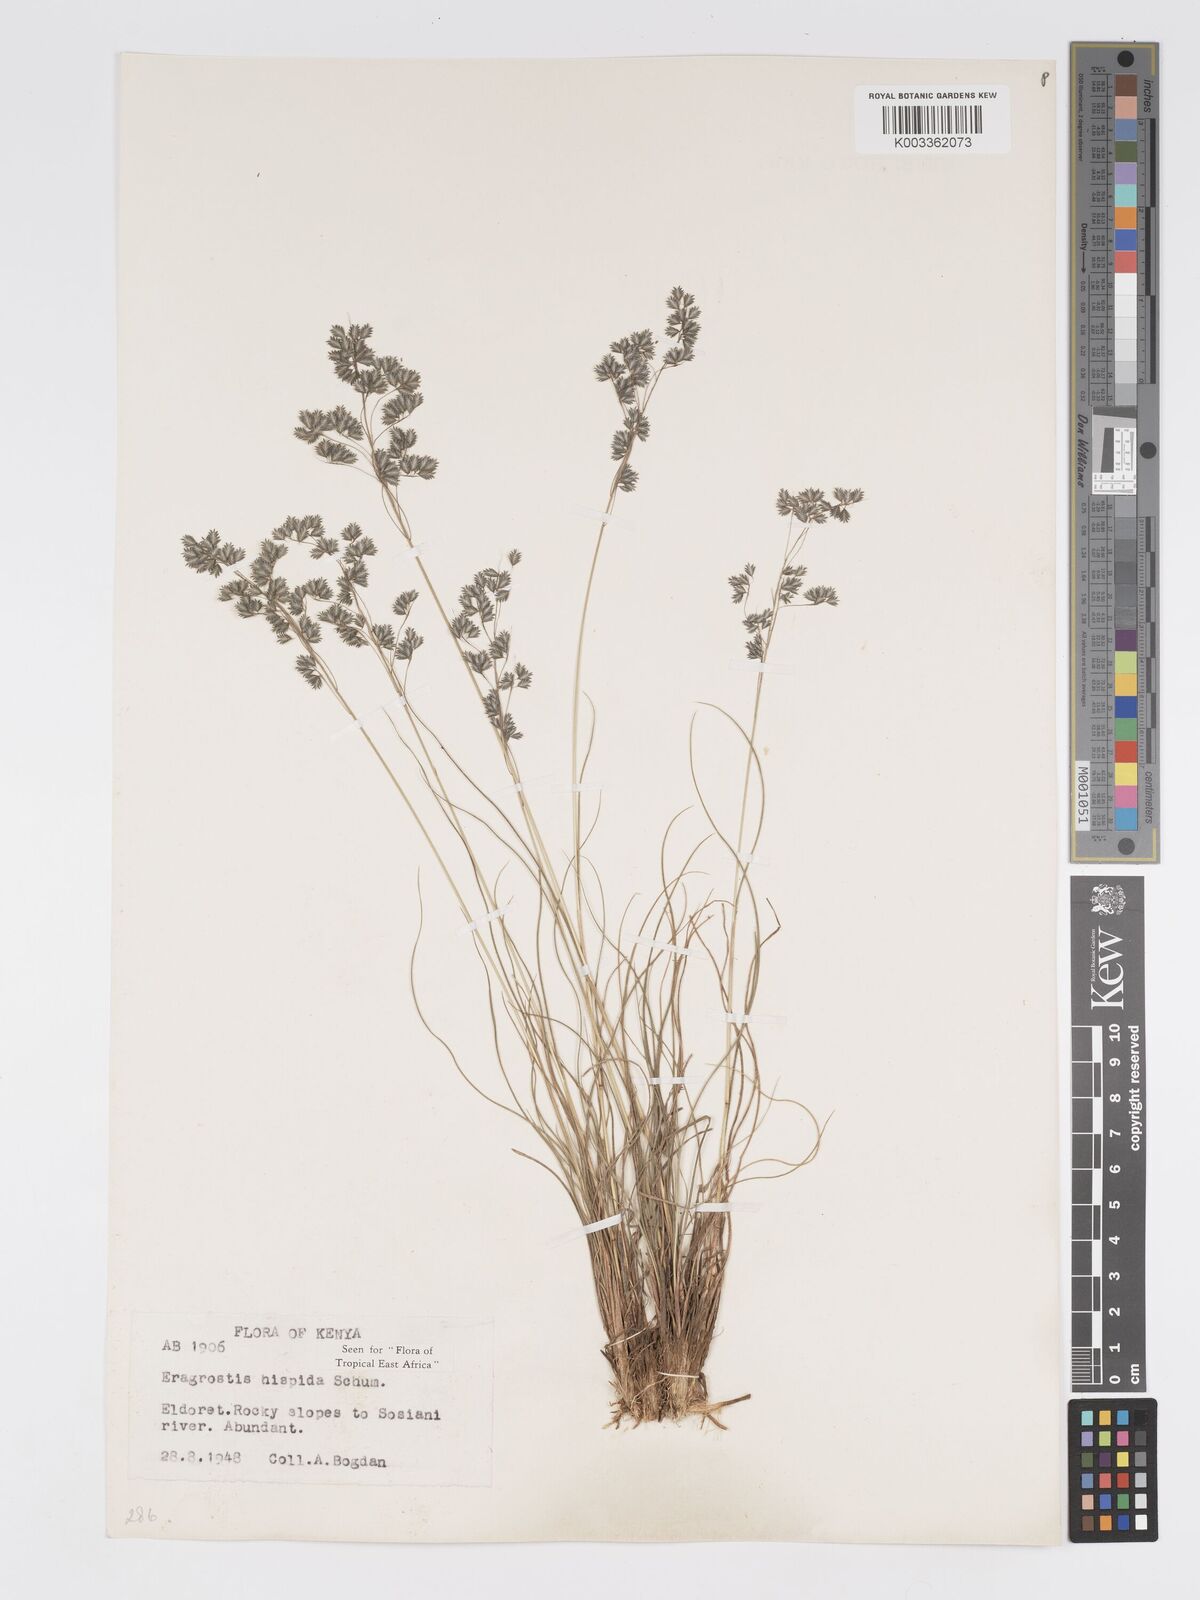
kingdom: Plantae
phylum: Tracheophyta
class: Liliopsida
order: Poales
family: Poaceae
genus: Eragrostis
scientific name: Eragrostis hispida
